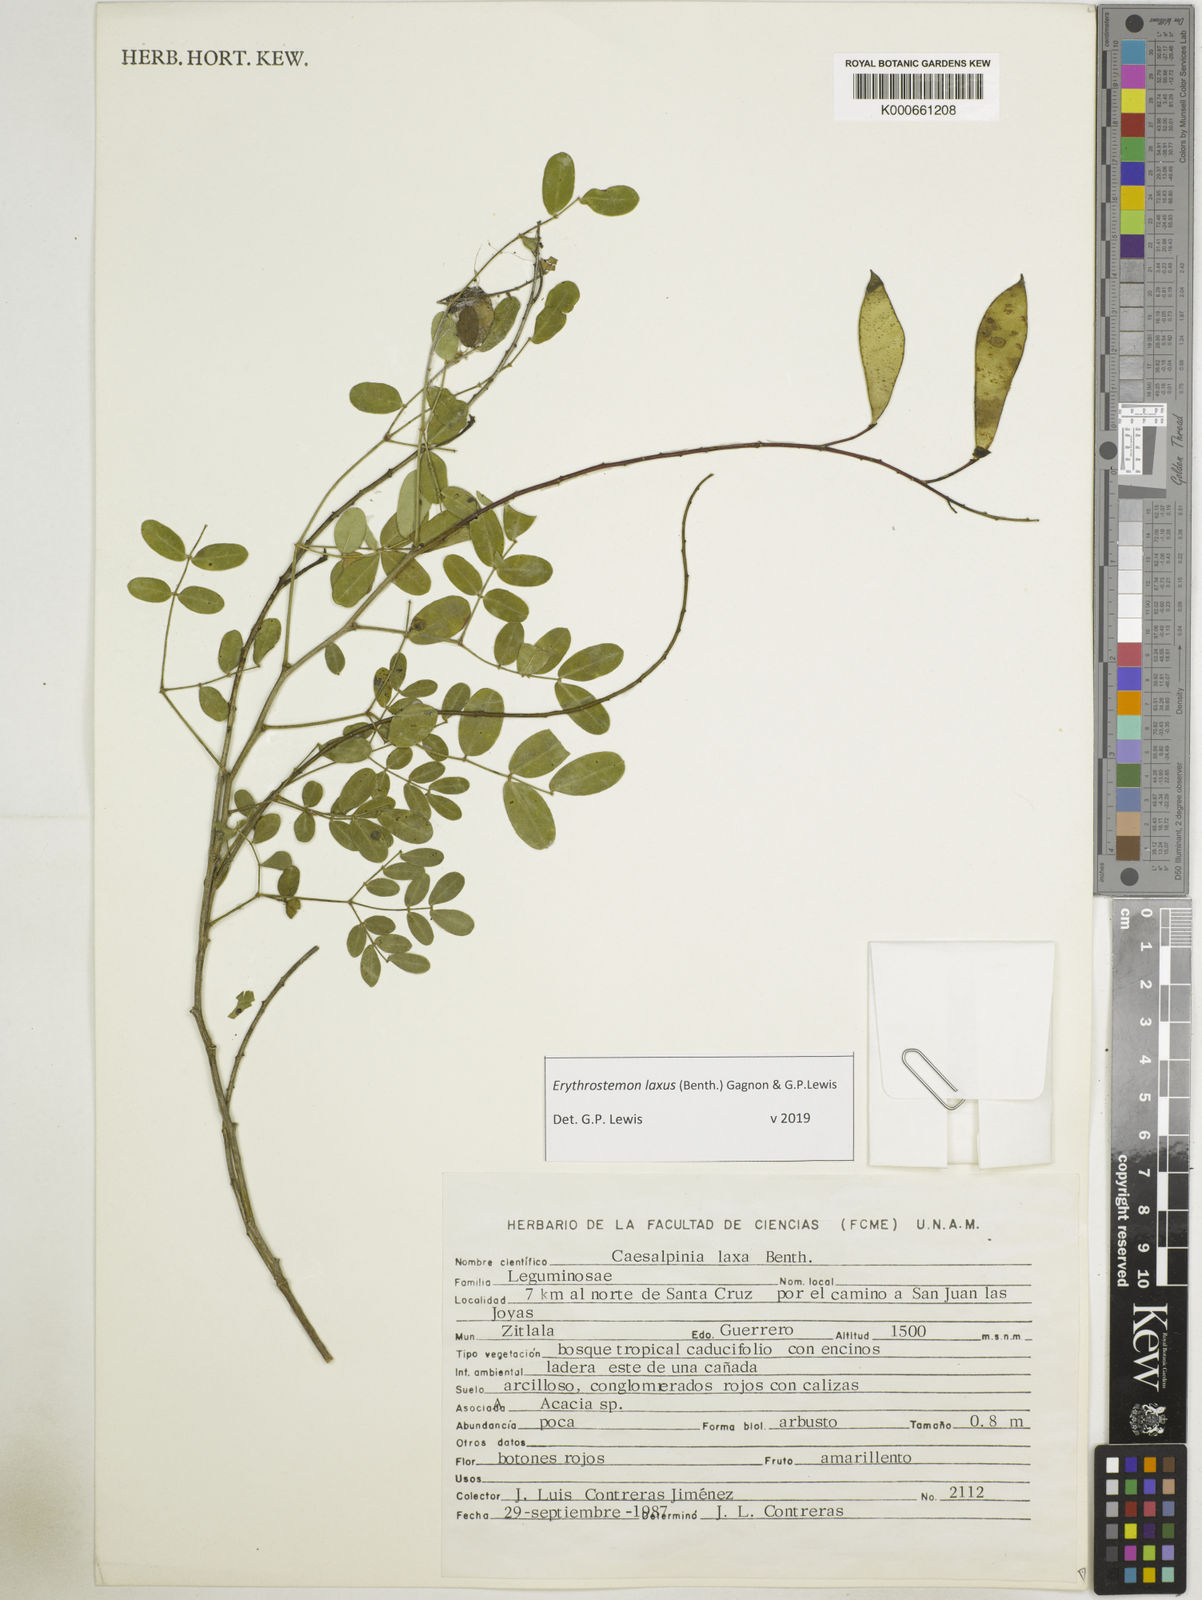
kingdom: Plantae
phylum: Tracheophyta
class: Magnoliopsida
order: Fabales
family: Fabaceae
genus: Erythrostemon
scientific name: Erythrostemon laxus
